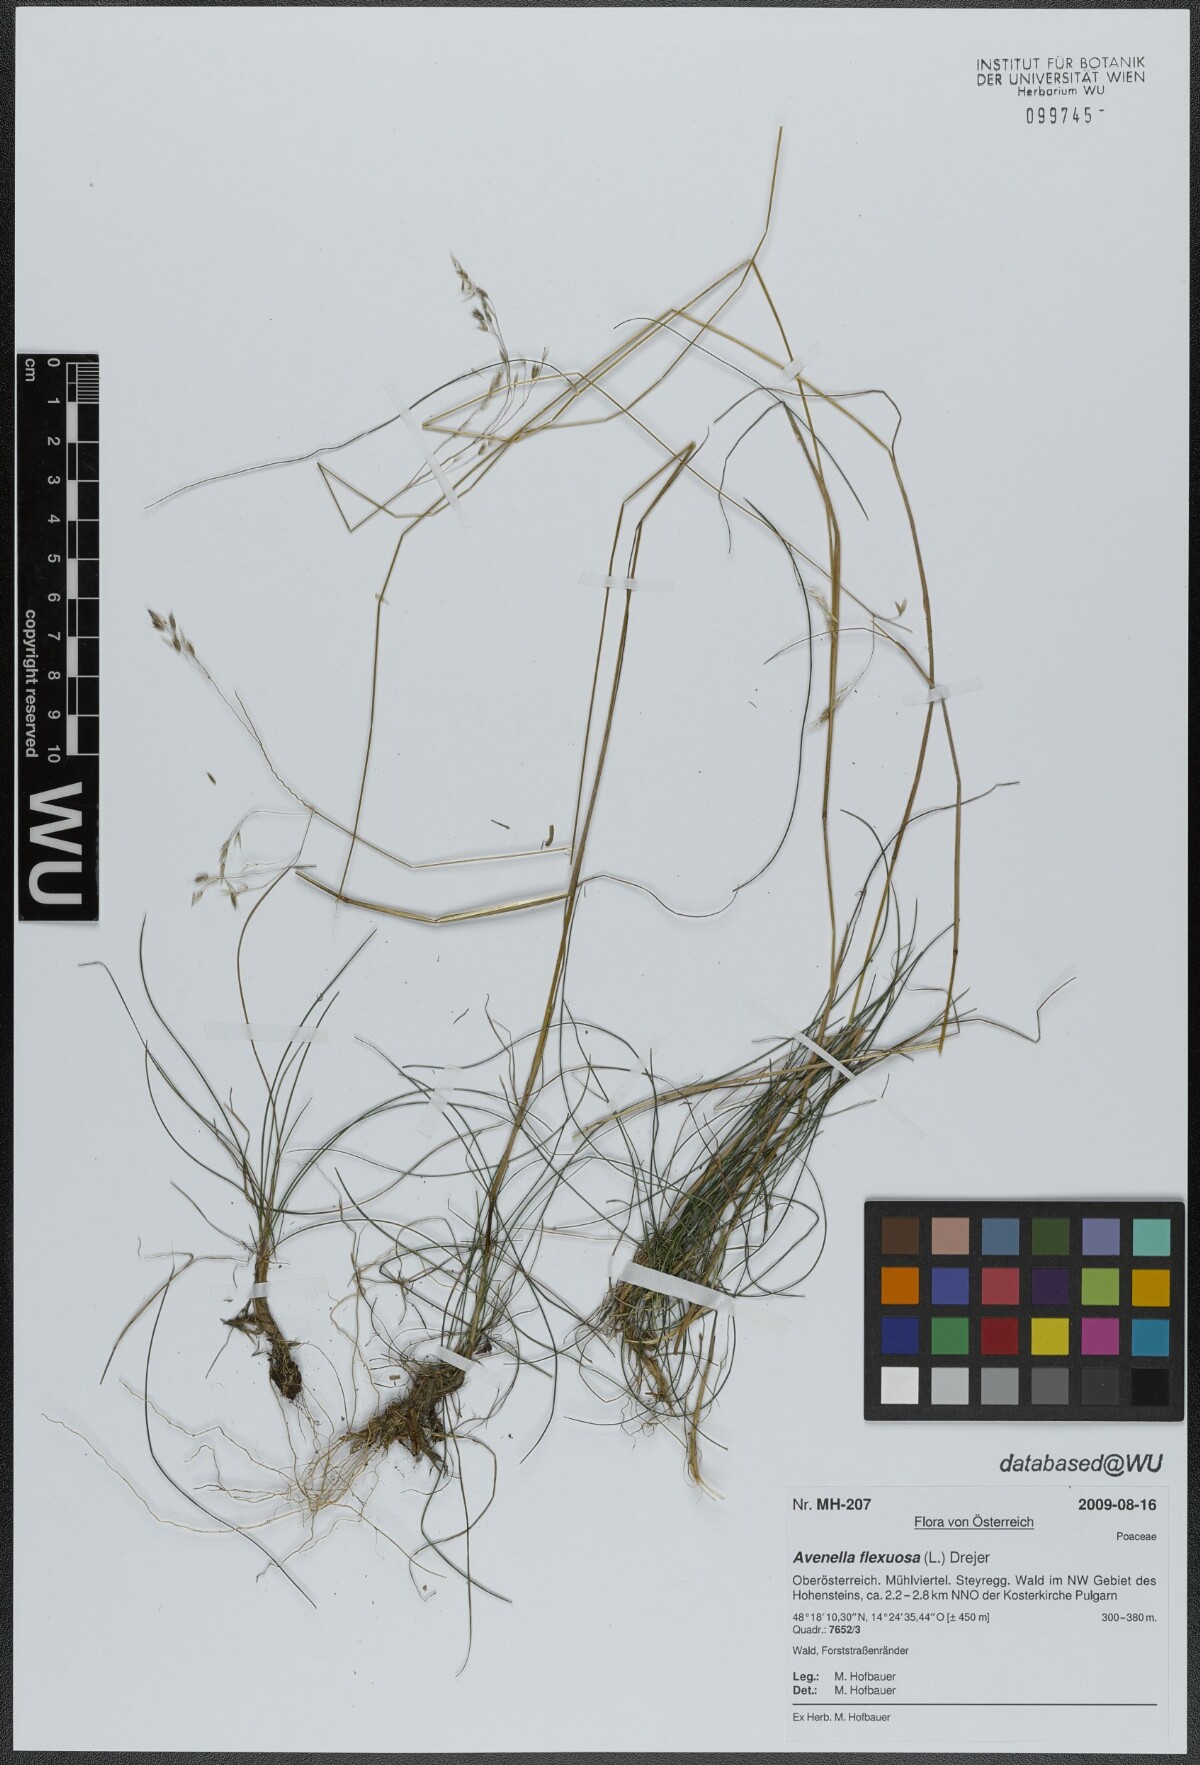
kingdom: Plantae
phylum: Tracheophyta
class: Liliopsida
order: Poales
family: Poaceae
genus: Avenella
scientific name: Avenella flexuosa
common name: Wavy hairgrass
